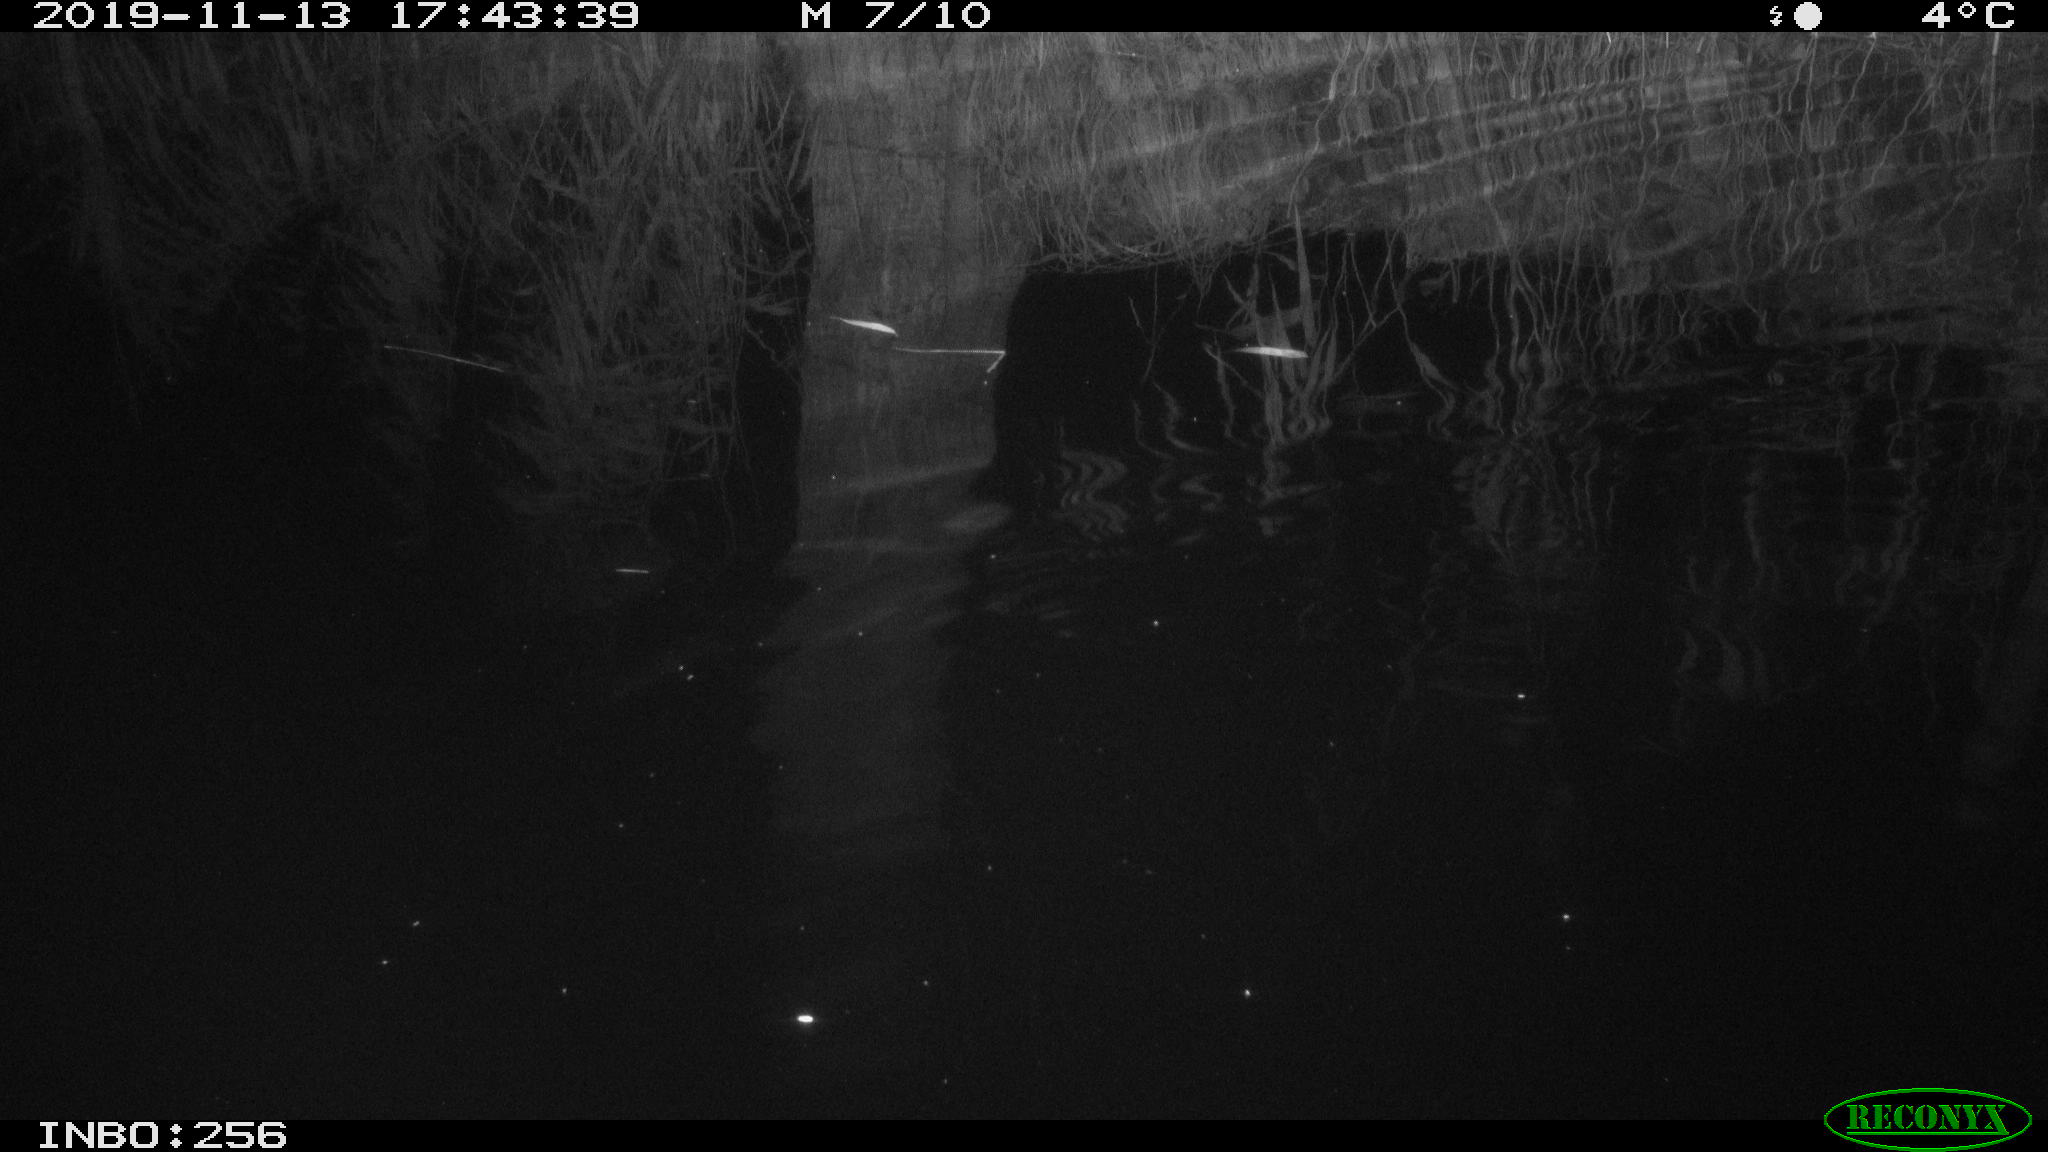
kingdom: Animalia
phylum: Chordata
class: Mammalia
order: Rodentia
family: Cricetidae
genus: Ondatra
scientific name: Ondatra zibethicus
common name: Muskrat
